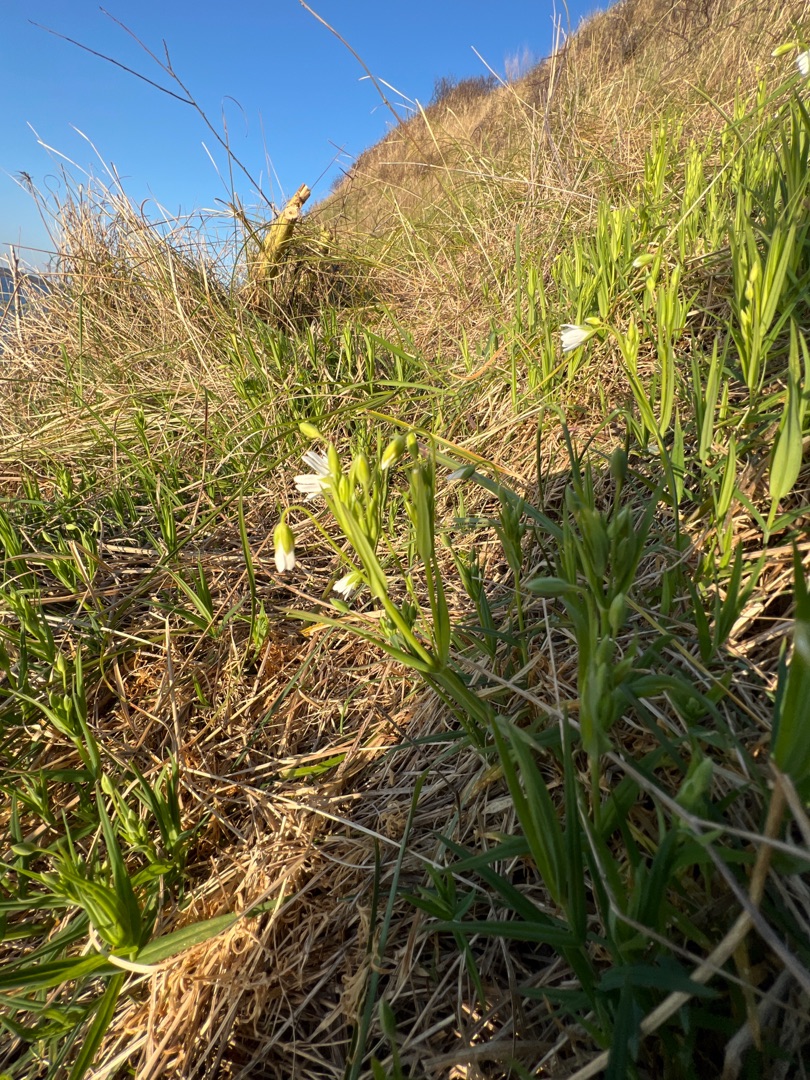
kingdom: Plantae
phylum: Tracheophyta
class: Magnoliopsida
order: Caryophyllales
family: Caryophyllaceae
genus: Rabelera
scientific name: Rabelera holostea
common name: Stor fladstjerne
